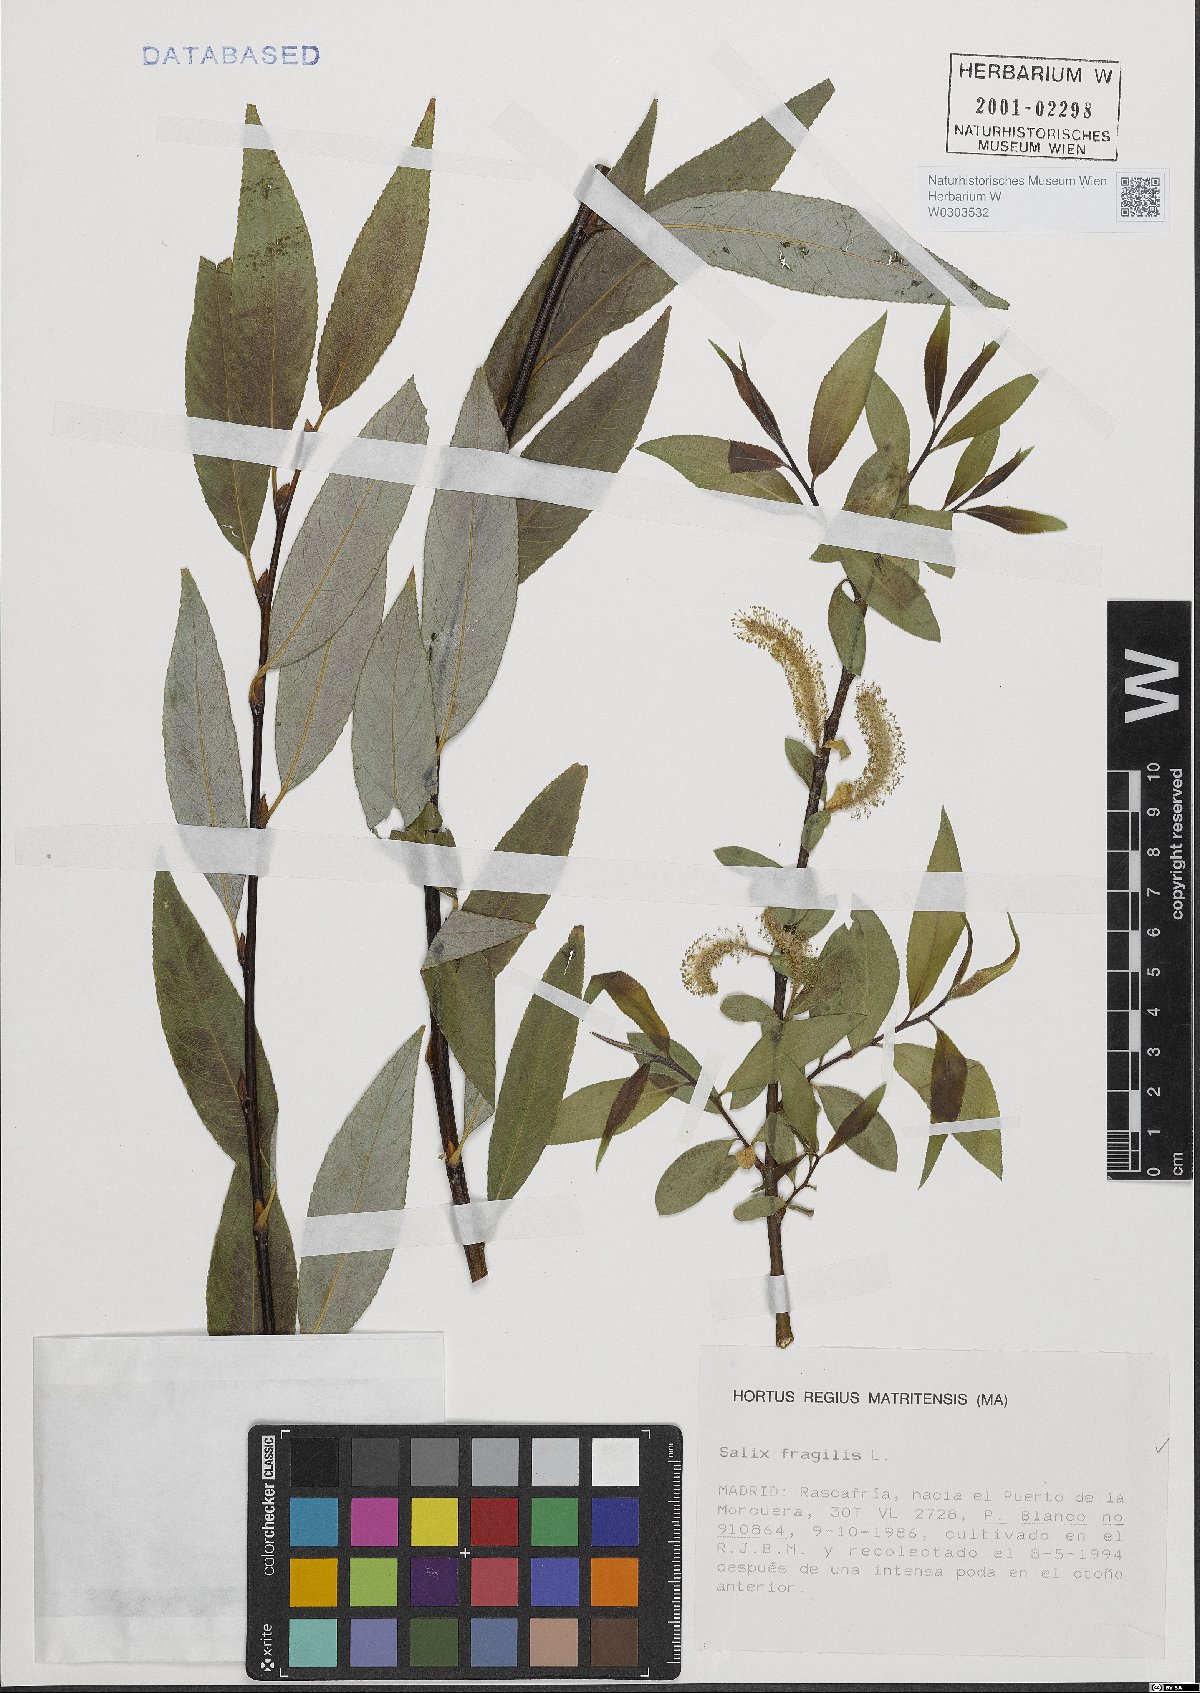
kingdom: Plantae
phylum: Tracheophyta
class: Magnoliopsida
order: Malpighiales
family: Salicaceae
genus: Salix
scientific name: Salix fragilis
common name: Crack willow
